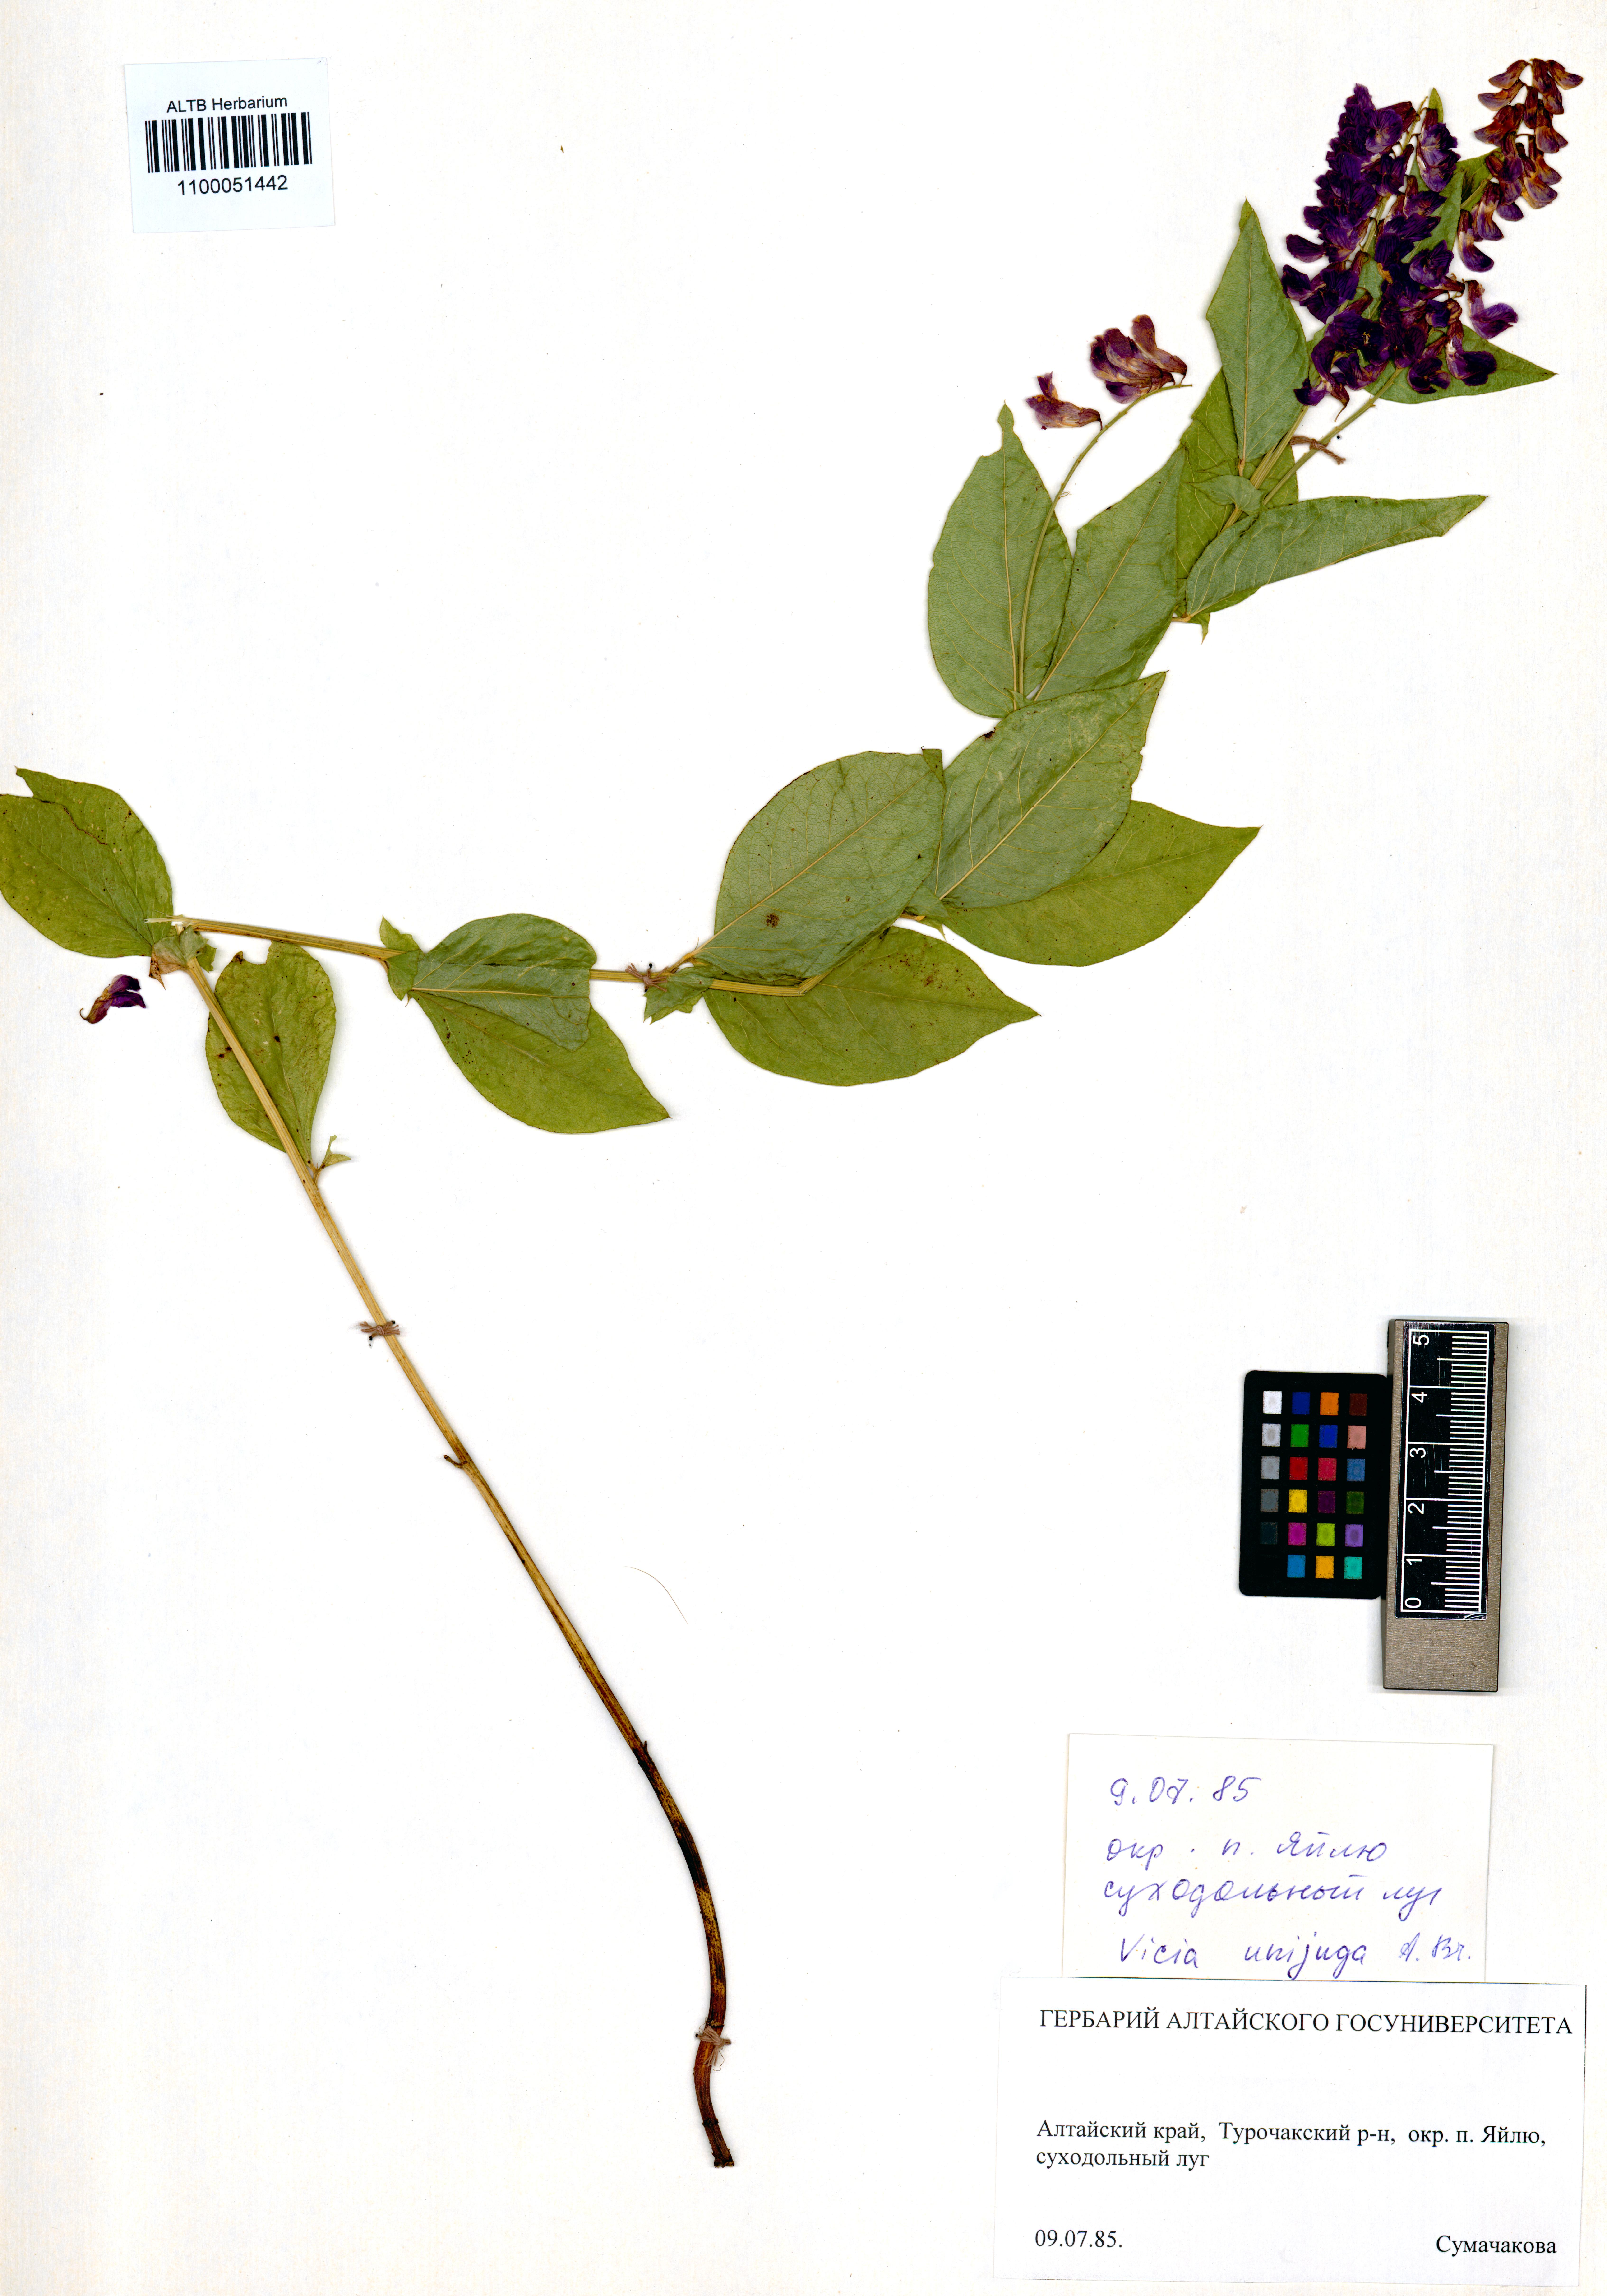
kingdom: Plantae
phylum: Tracheophyta
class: Magnoliopsida
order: Fabales
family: Fabaceae
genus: Vicia
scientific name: Vicia unijuga
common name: Two-leaf vetch
